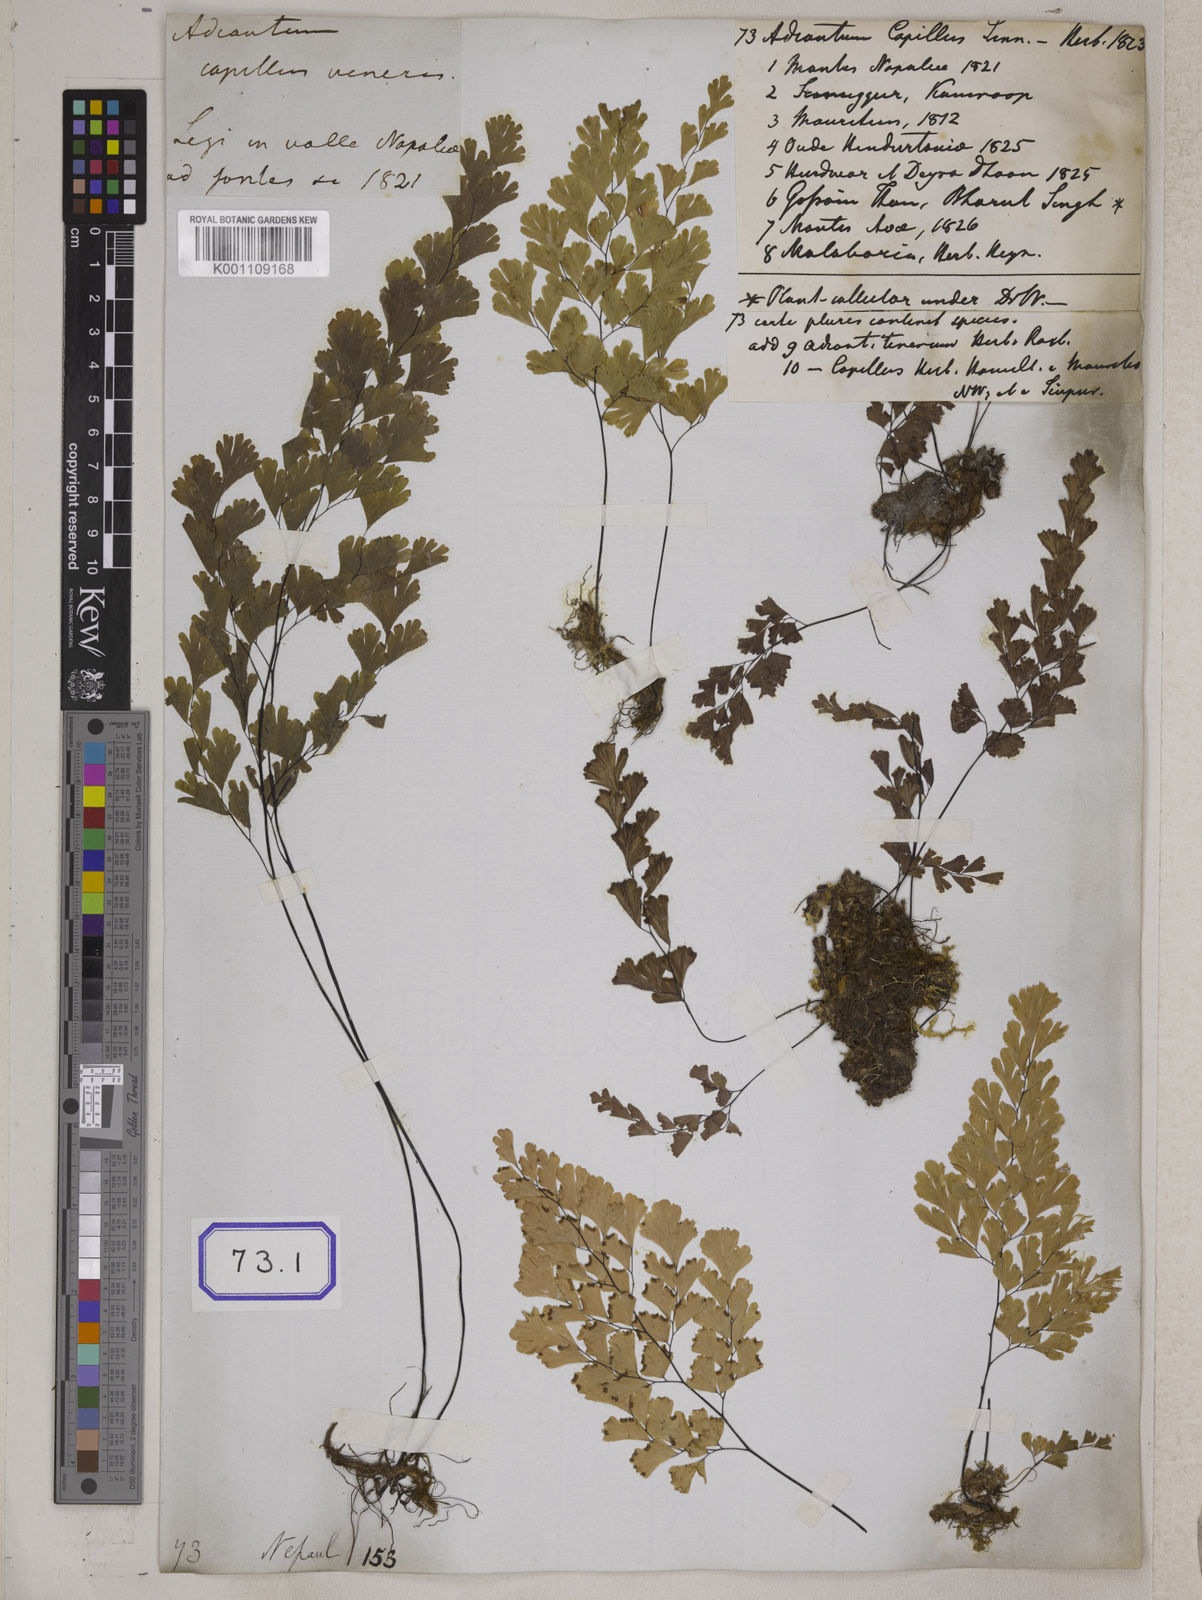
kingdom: Plantae
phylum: Tracheophyta
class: Polypodiopsida
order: Polypodiales
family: Pteridaceae
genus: Adiantum
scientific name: Adiantum
